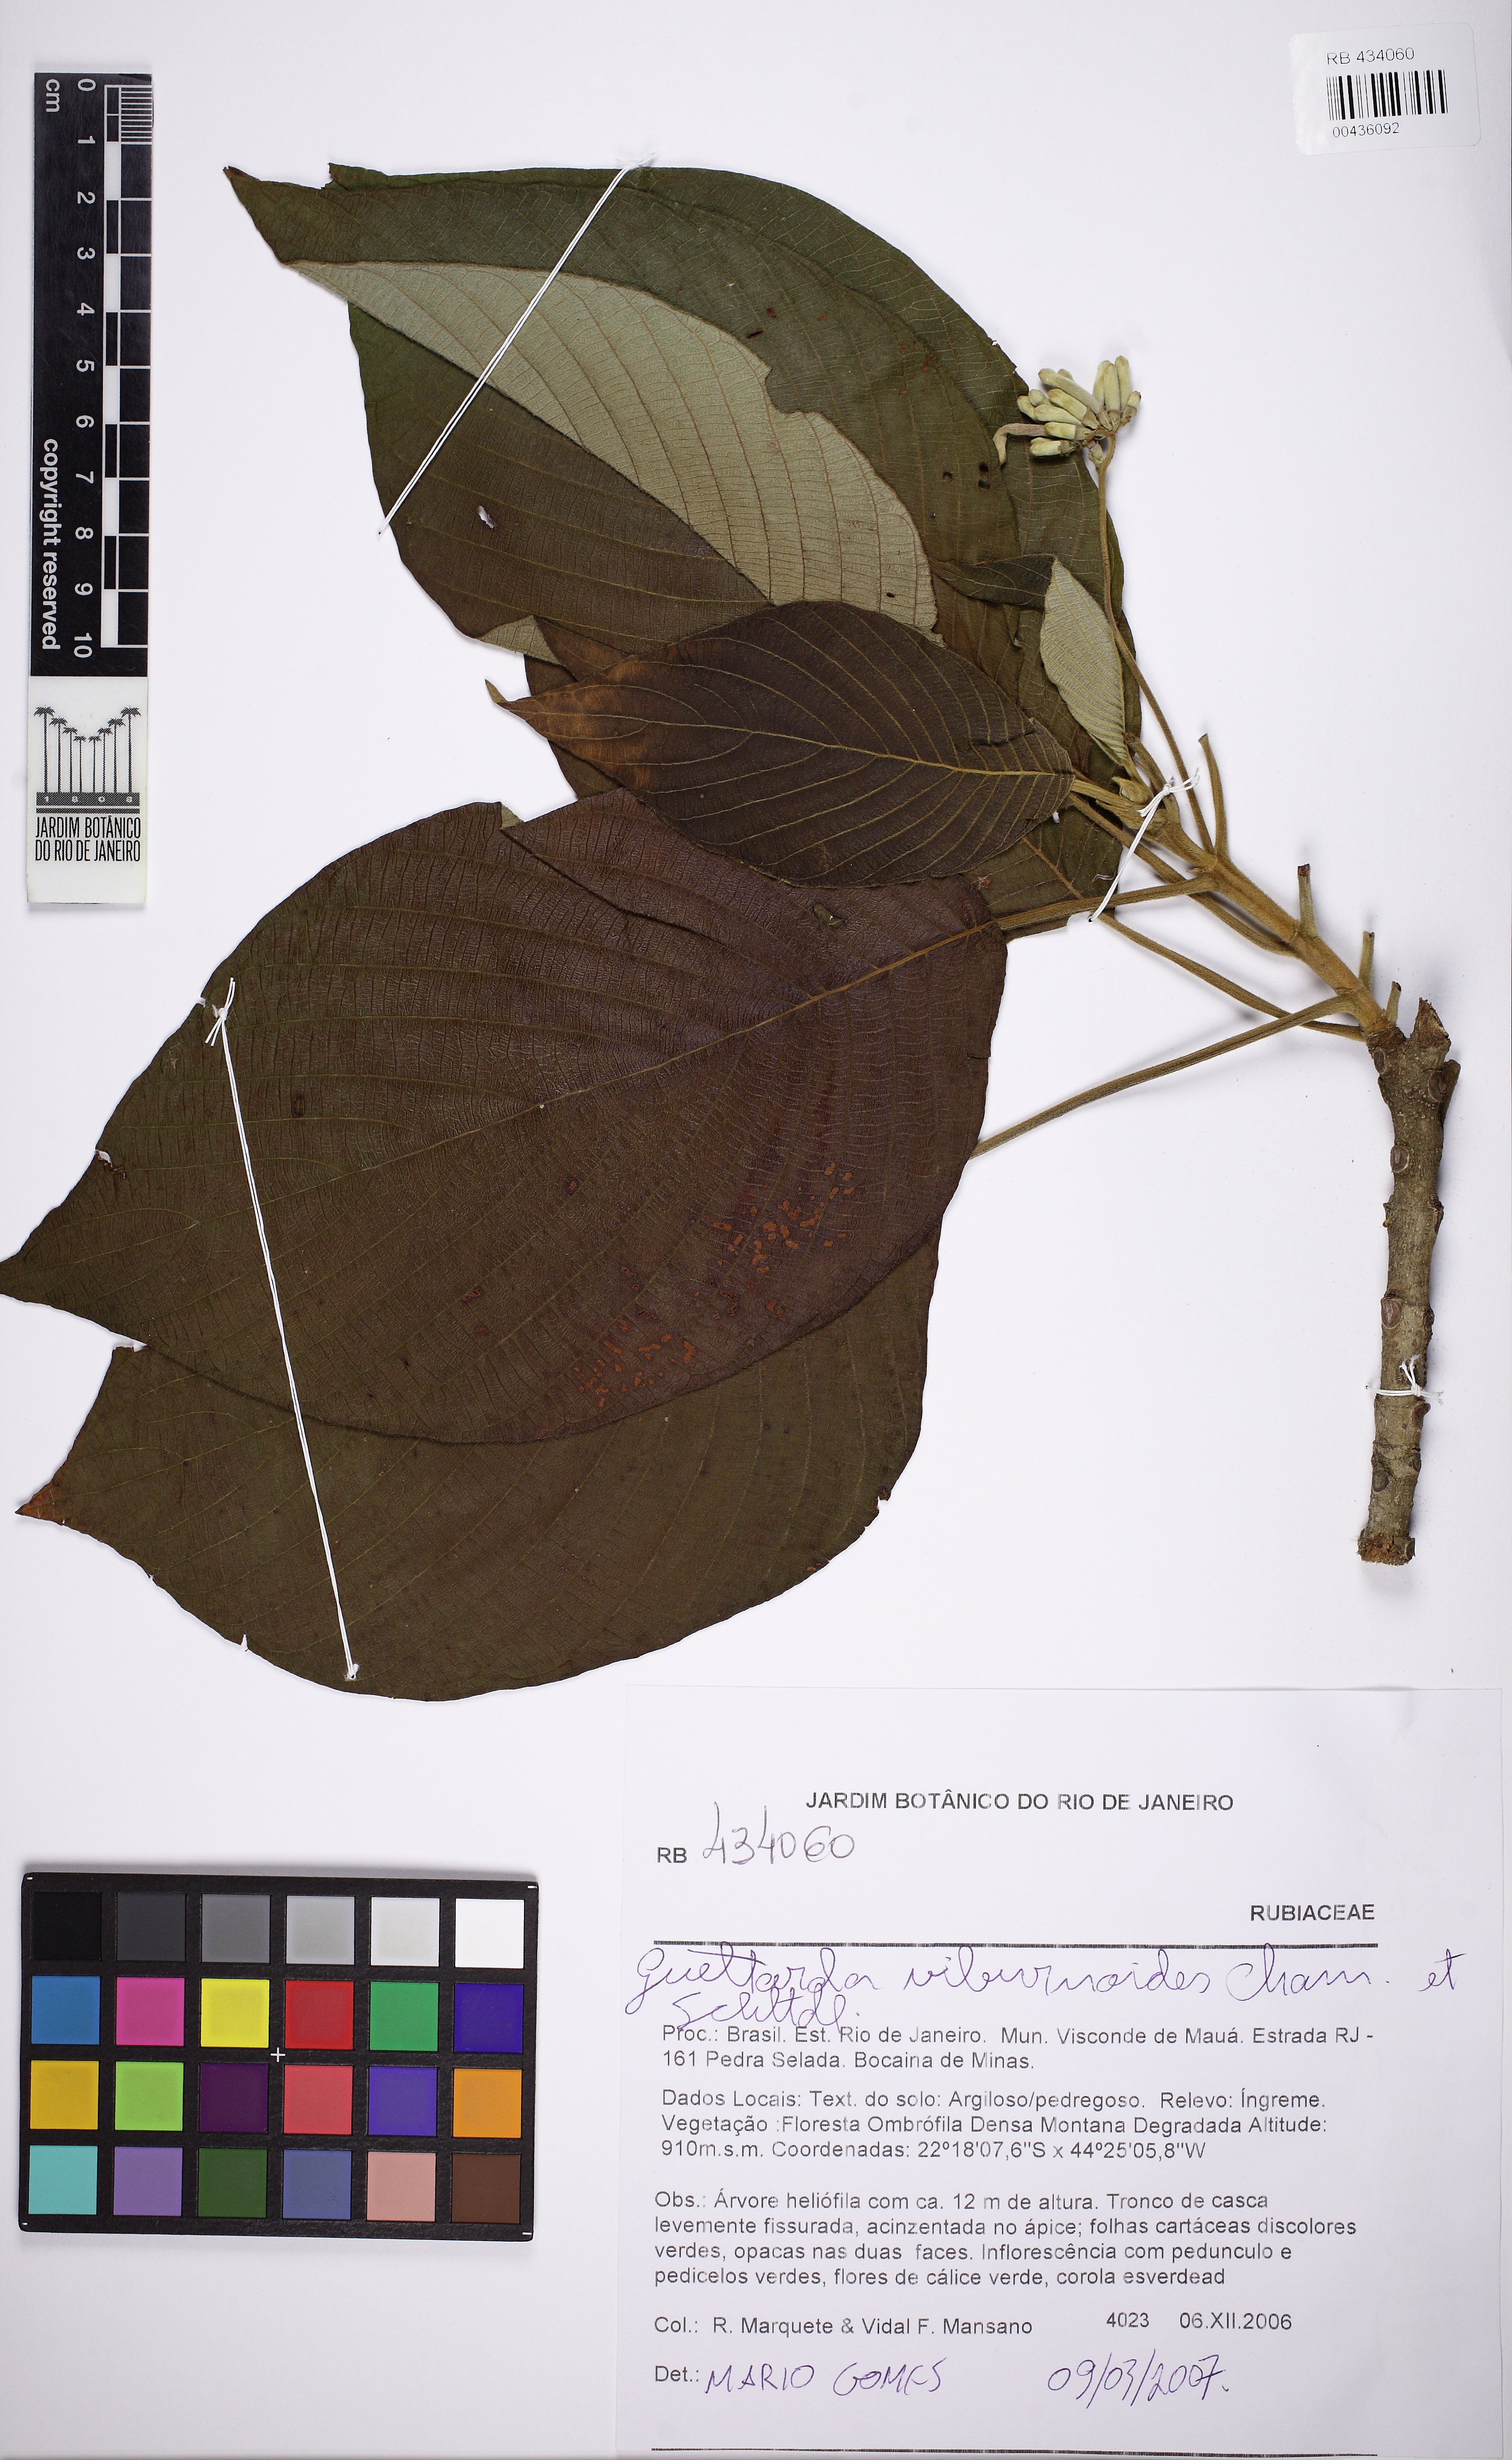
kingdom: Plantae
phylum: Tracheophyta
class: Magnoliopsida
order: Gentianales
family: Rubiaceae
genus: Guettarda
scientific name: Guettarda viburnoides
